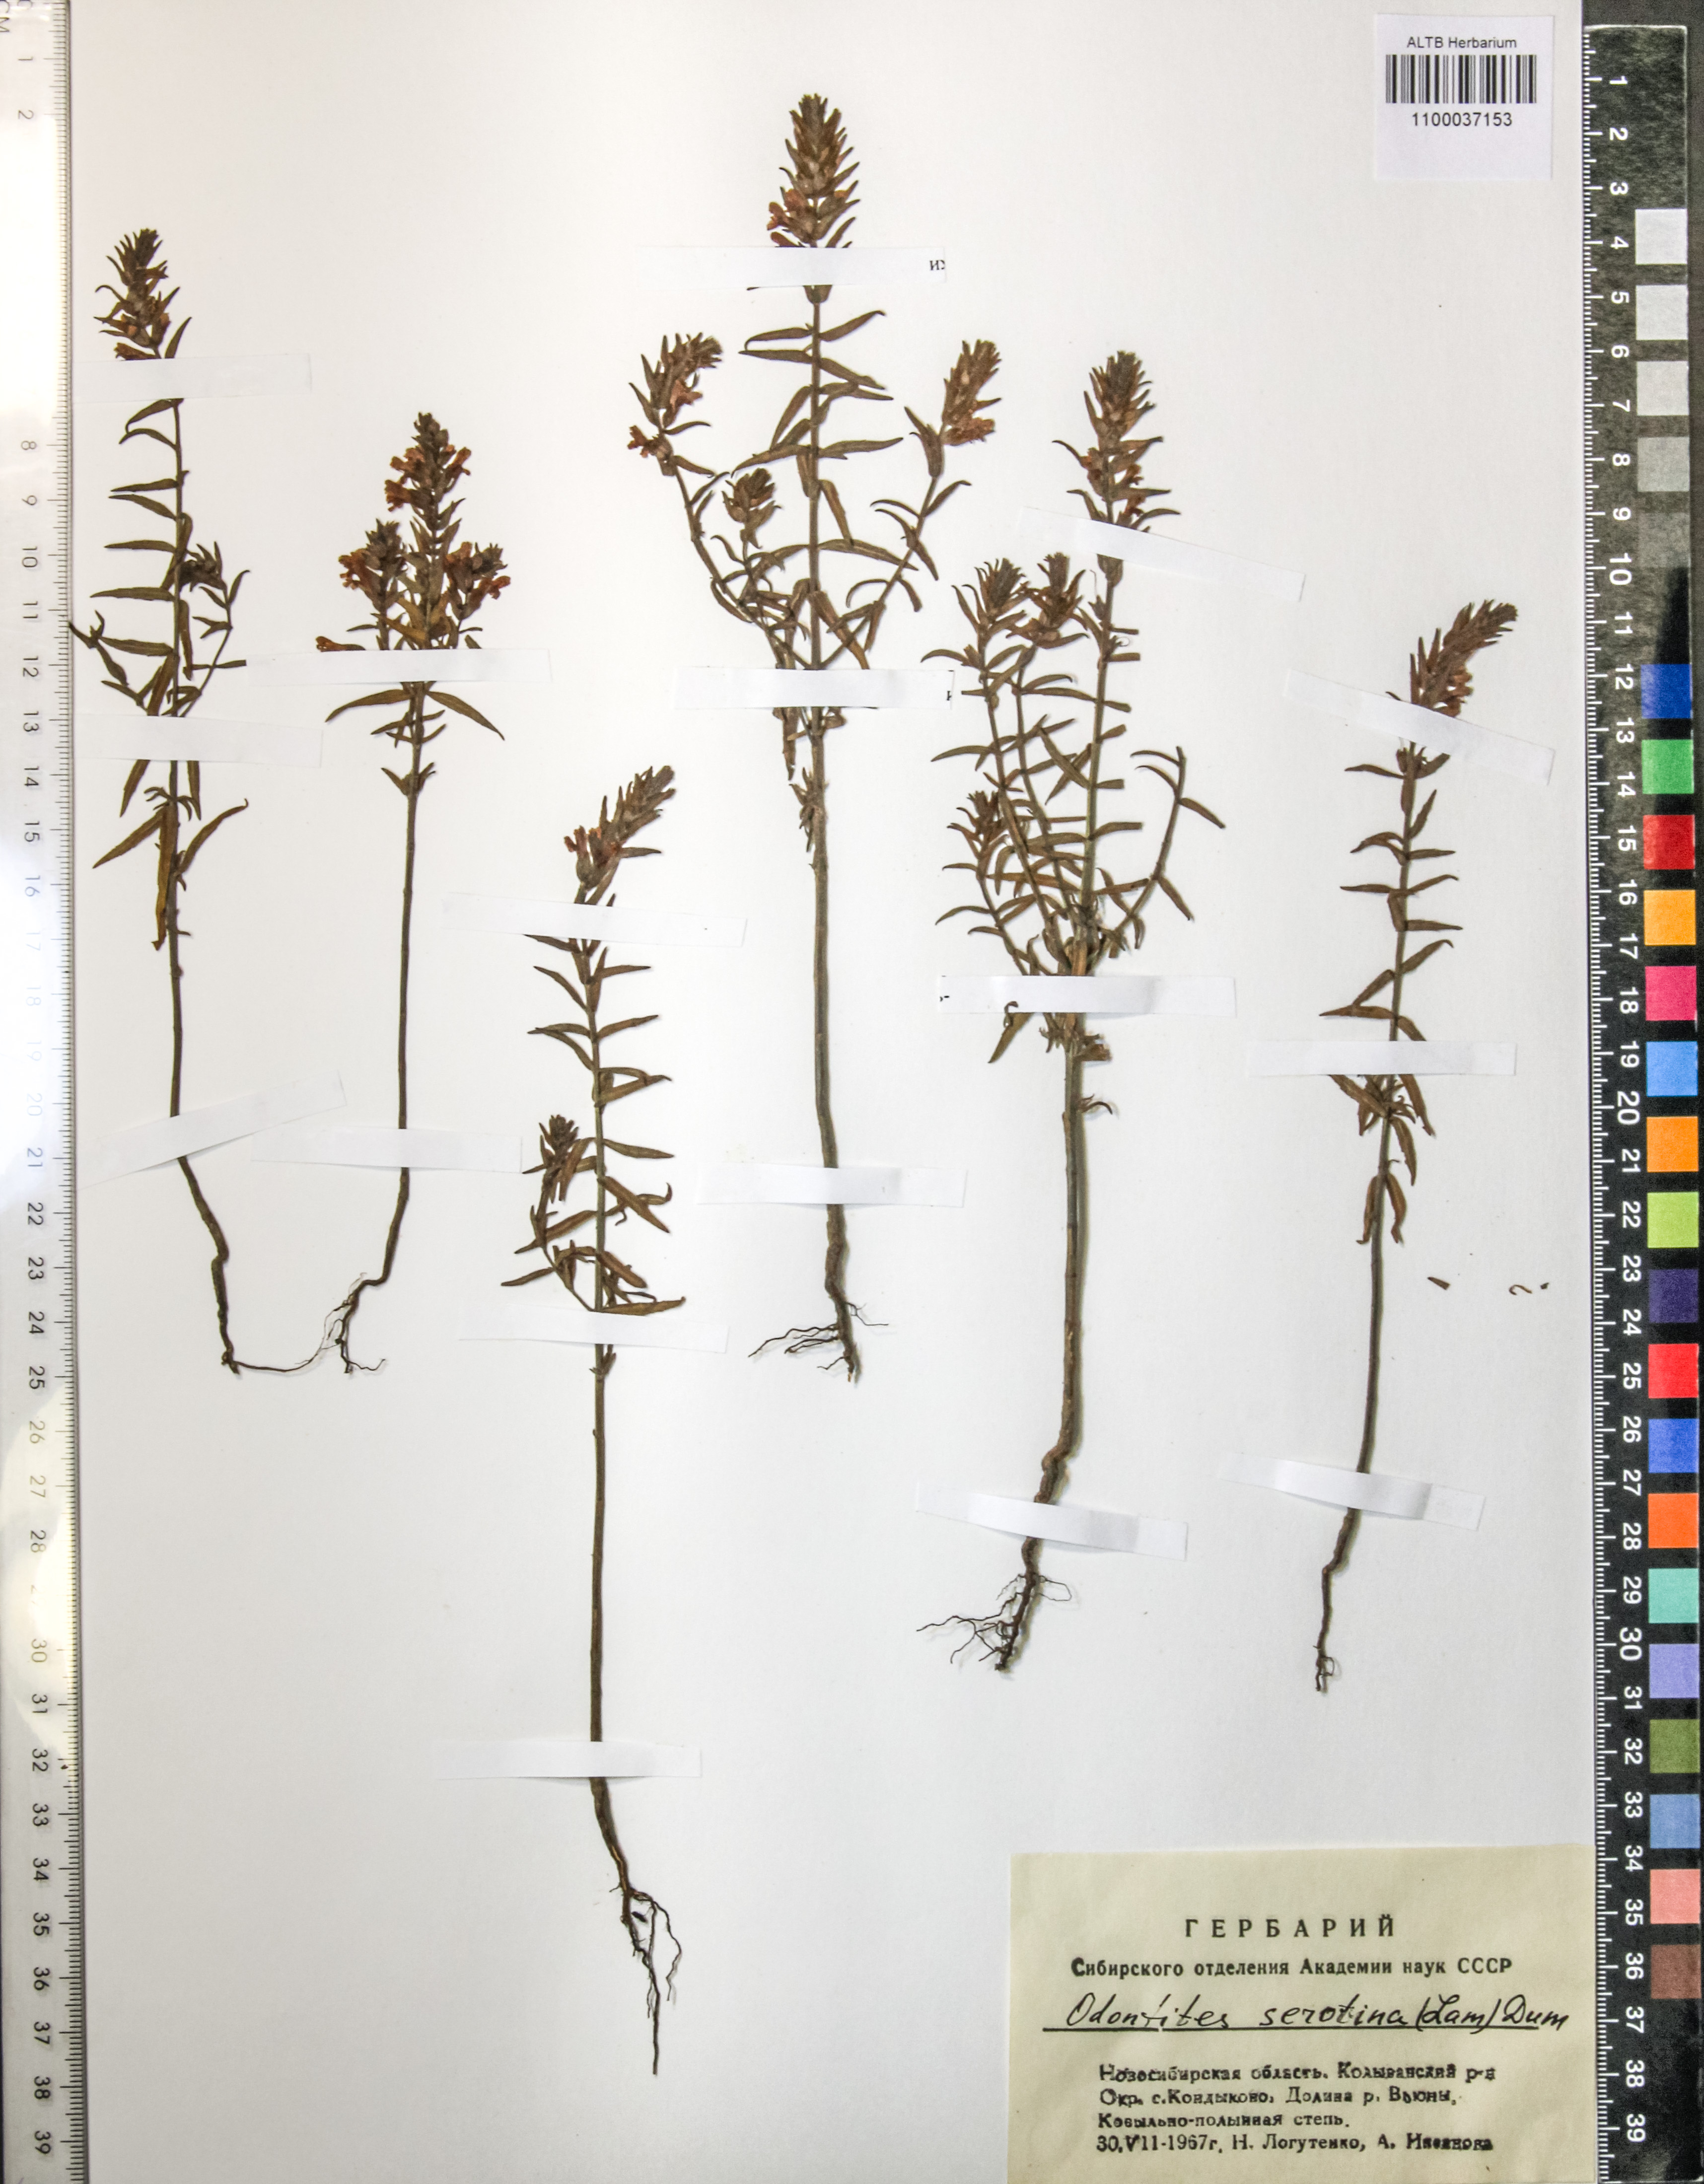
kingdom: Plantae
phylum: Tracheophyta
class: Magnoliopsida
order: Lamiales
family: Orobanchaceae
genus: Odontites
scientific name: Odontites vulgaris
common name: Broomrape
